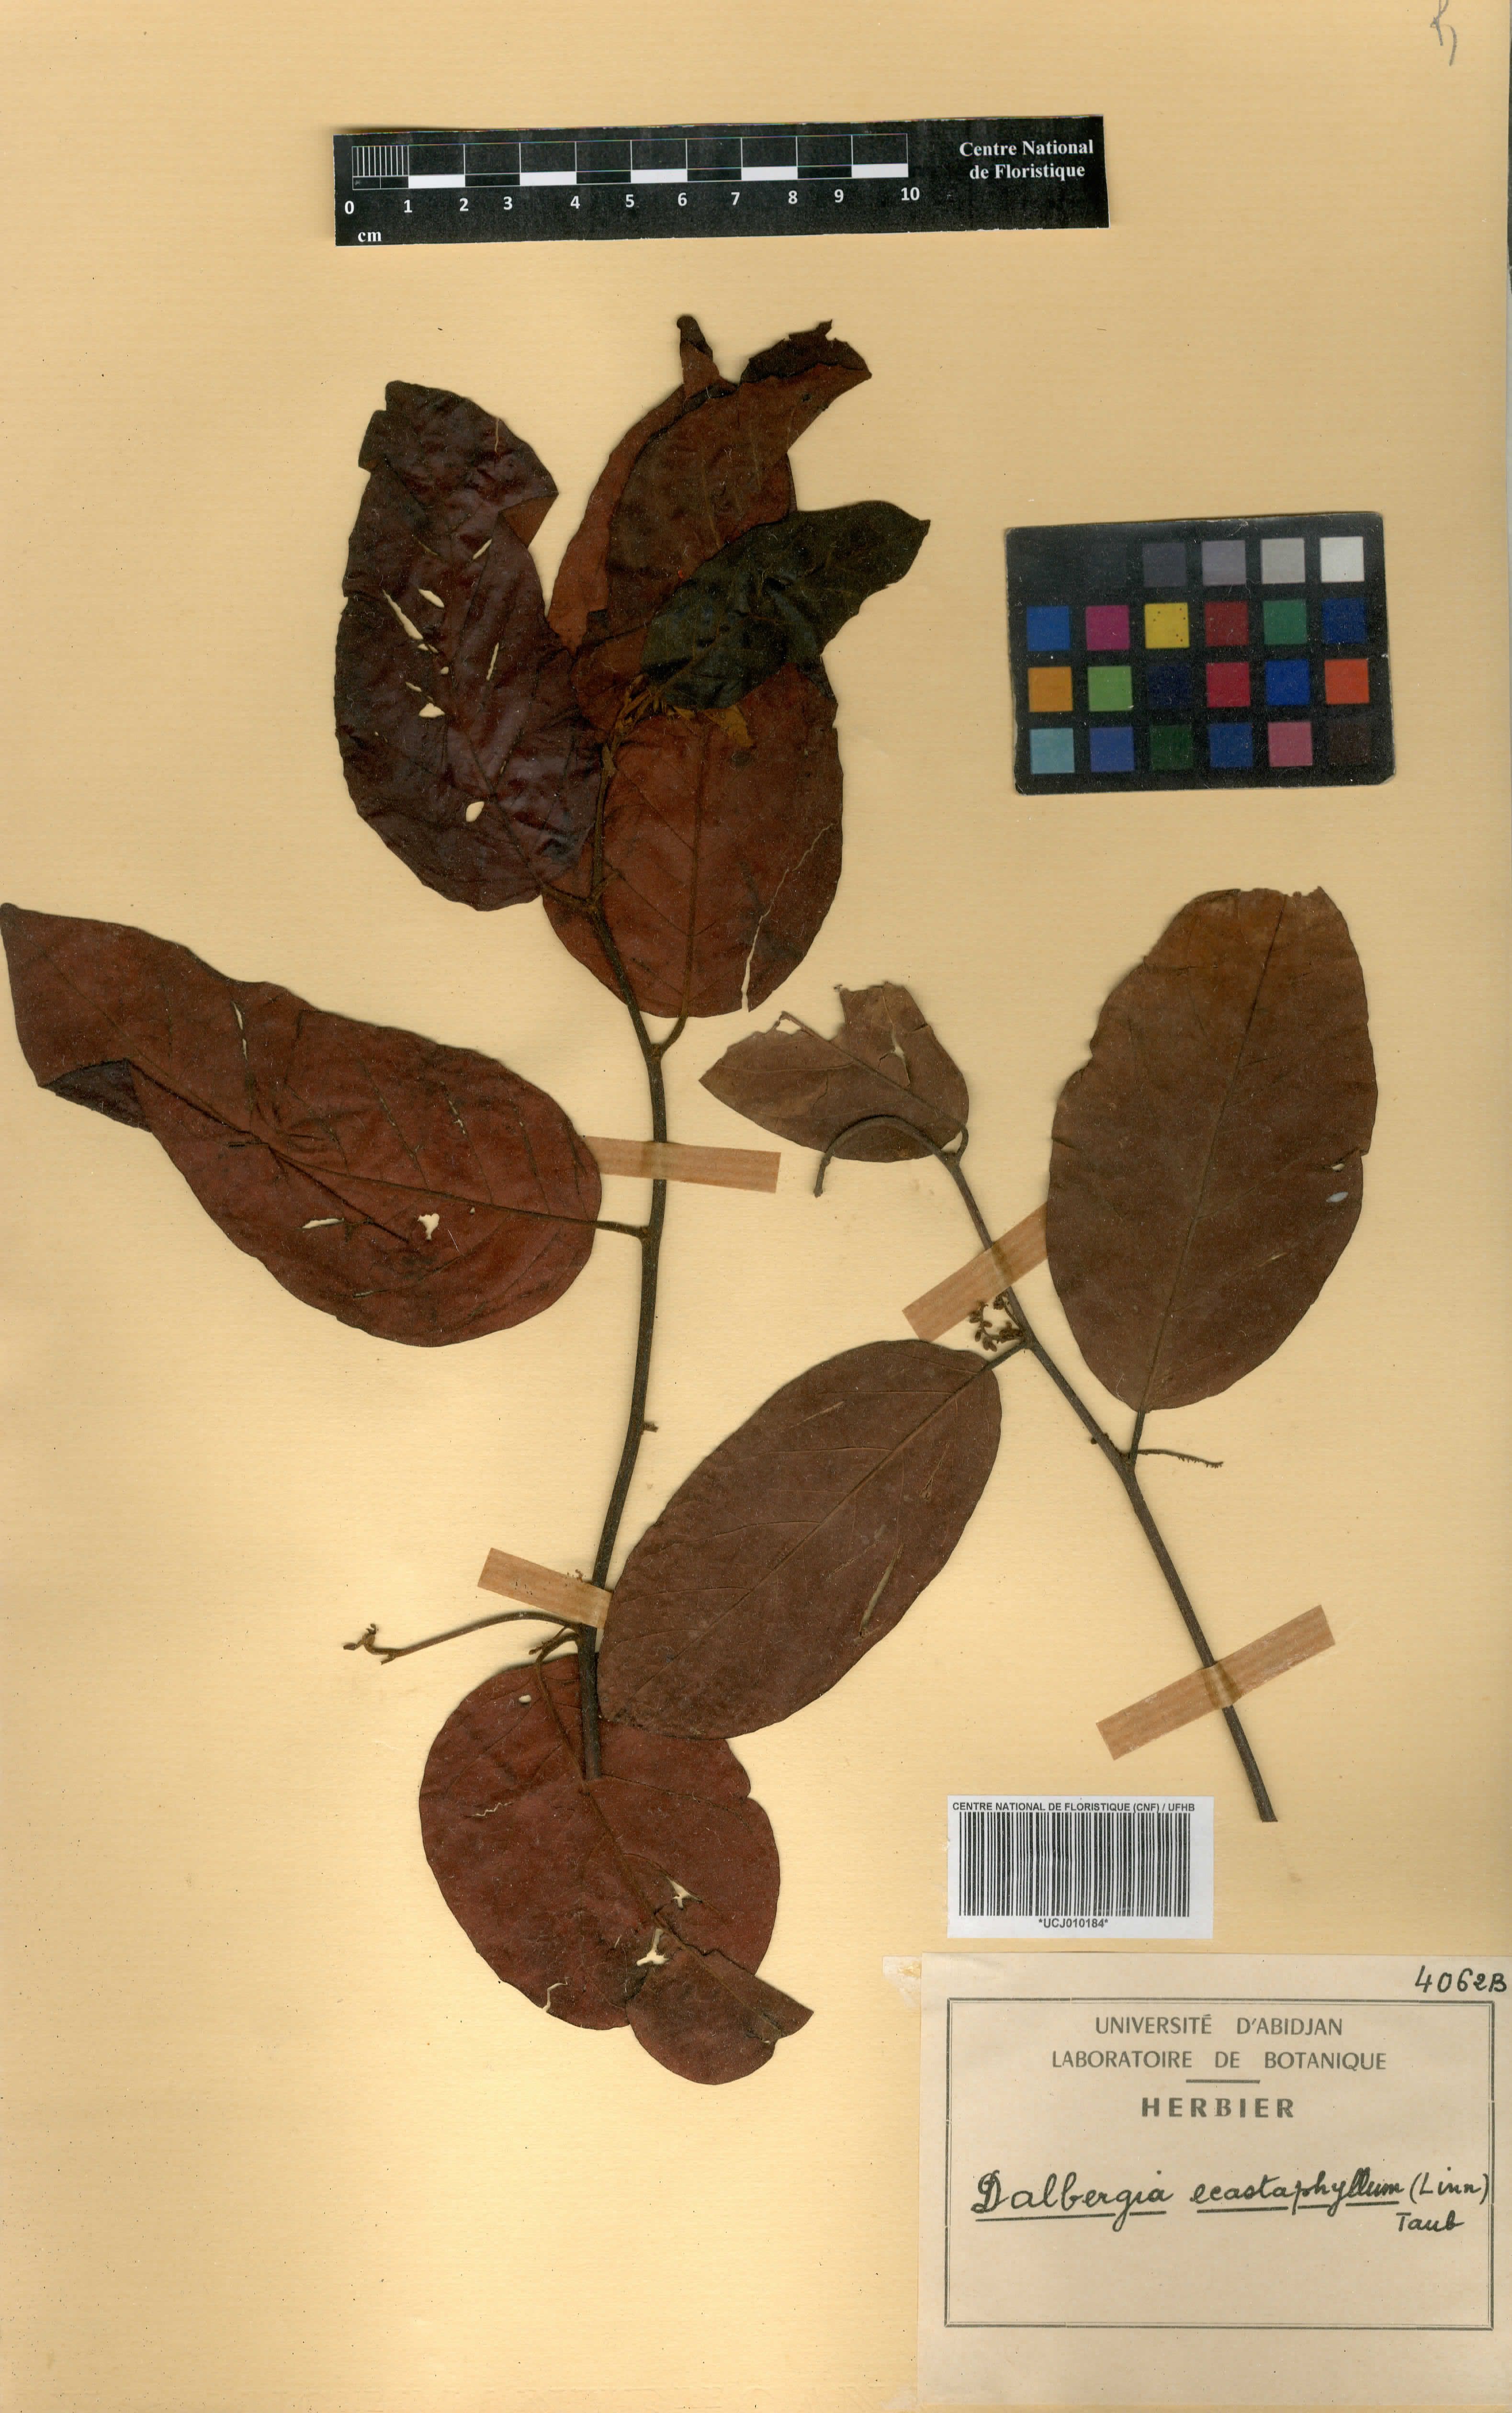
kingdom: Plantae
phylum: Tracheophyta
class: Magnoliopsida
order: Fabales
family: Fabaceae
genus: Dalbergia
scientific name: Dalbergia ecastaphyllum
